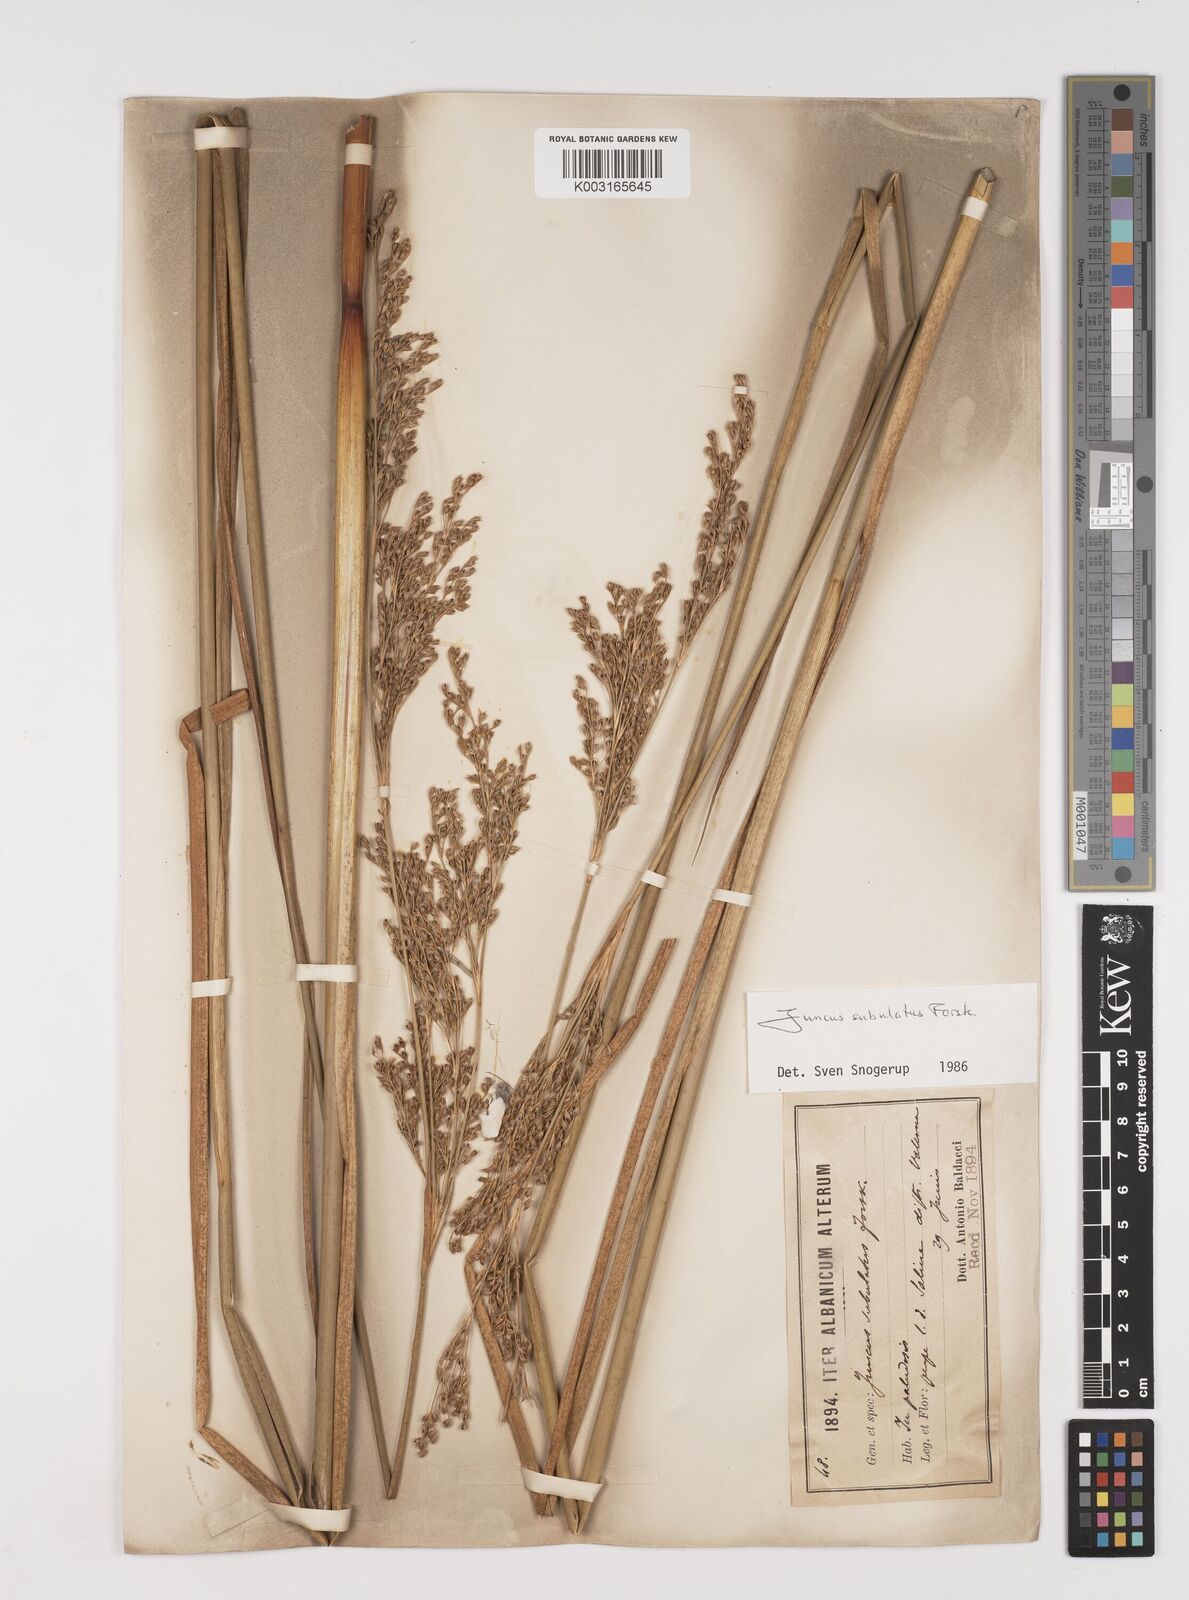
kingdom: Plantae
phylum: Tracheophyta
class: Liliopsida
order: Poales
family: Juncaceae
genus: Juncus
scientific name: Juncus subulatus
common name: Somerset rush
